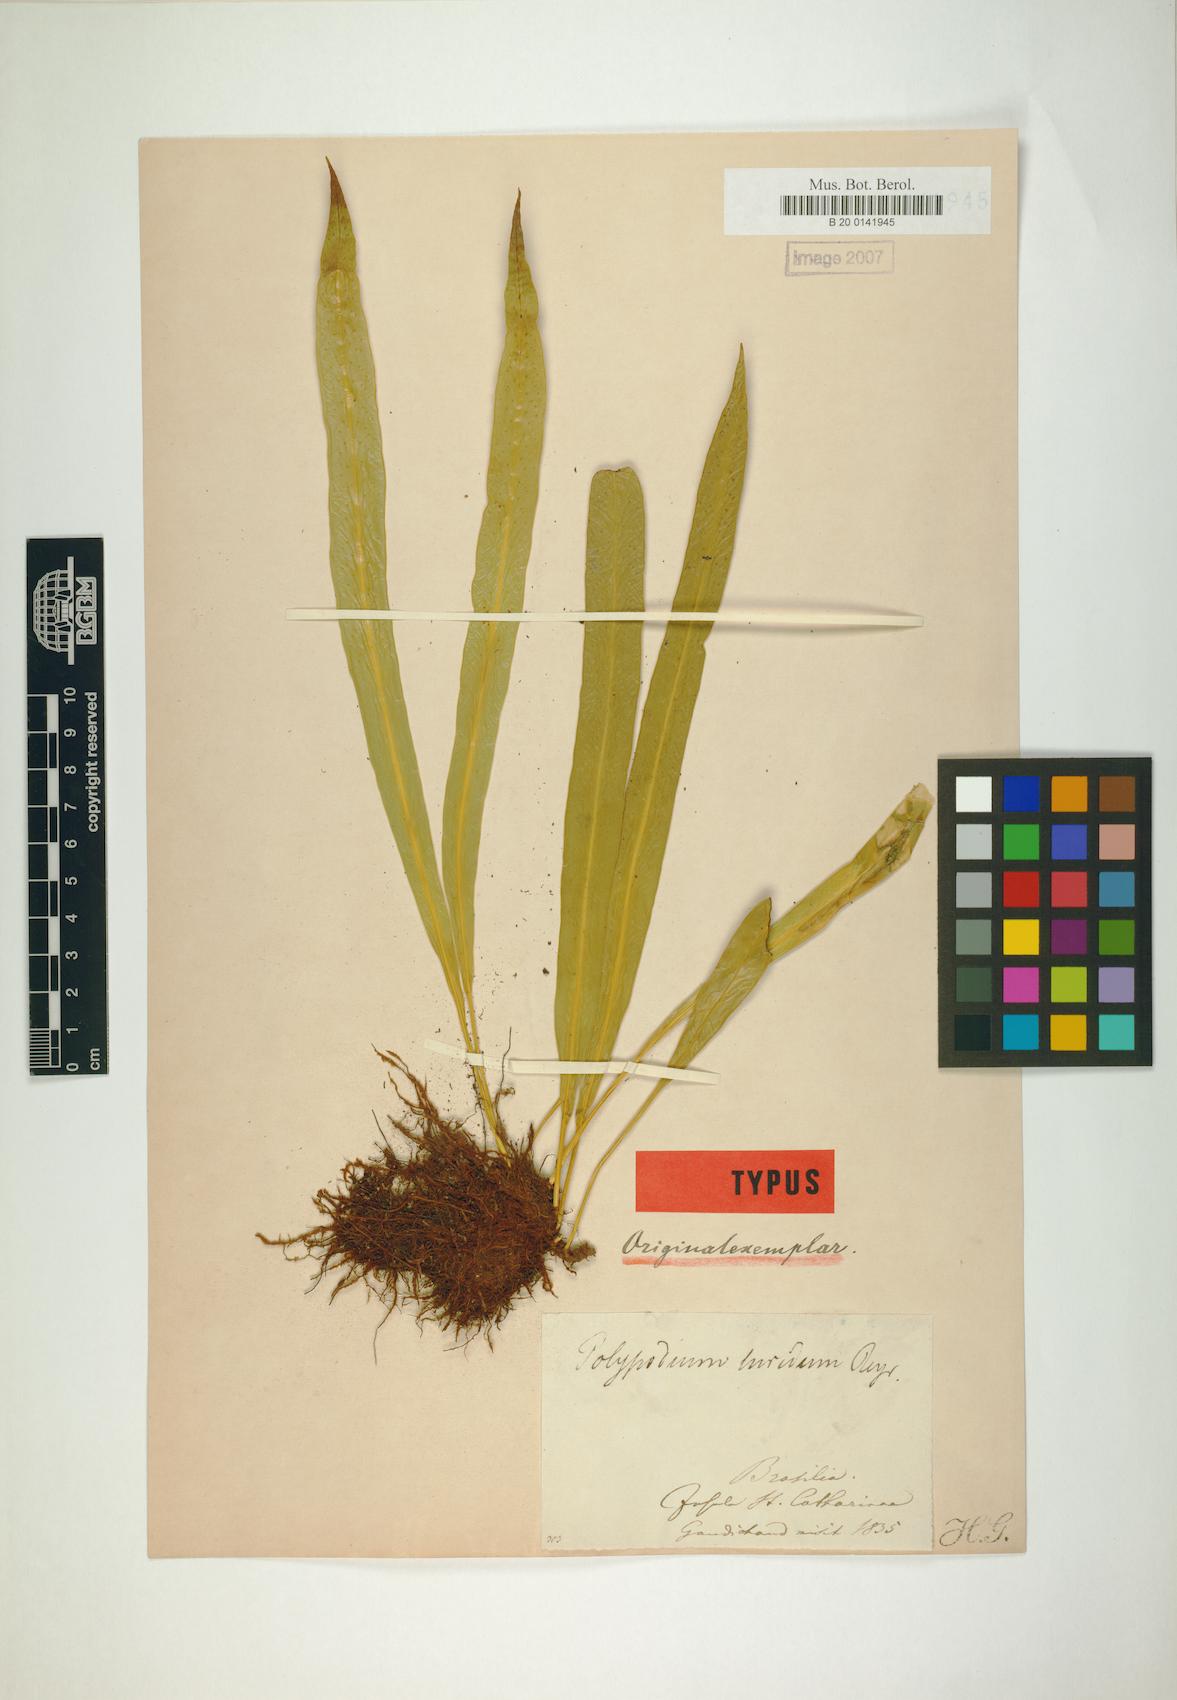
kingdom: Plantae
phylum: Tracheophyta
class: Polypodiopsida
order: Polypodiales
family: Polypodiaceae
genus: Campyloneurum
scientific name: Campyloneurum rigidum
